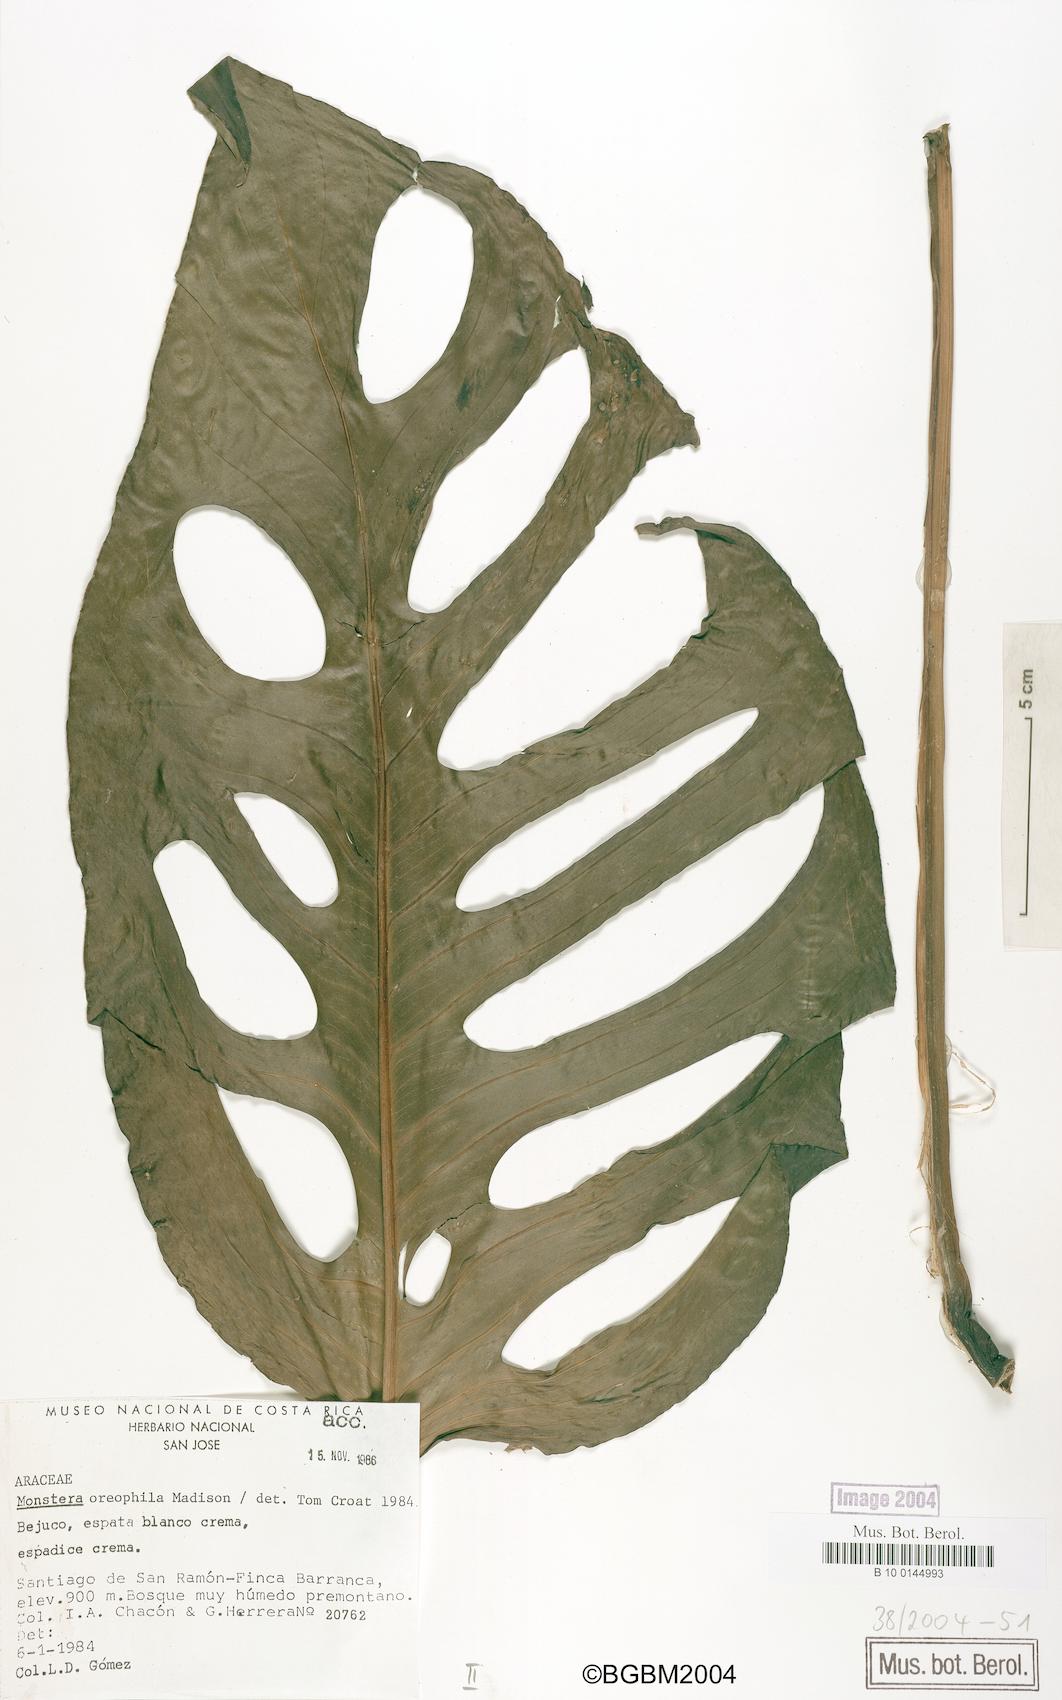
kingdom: Plantae
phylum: Tracheophyta
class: Liliopsida
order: Alismatales
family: Araceae
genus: Monstera
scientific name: Monstera oreophila
